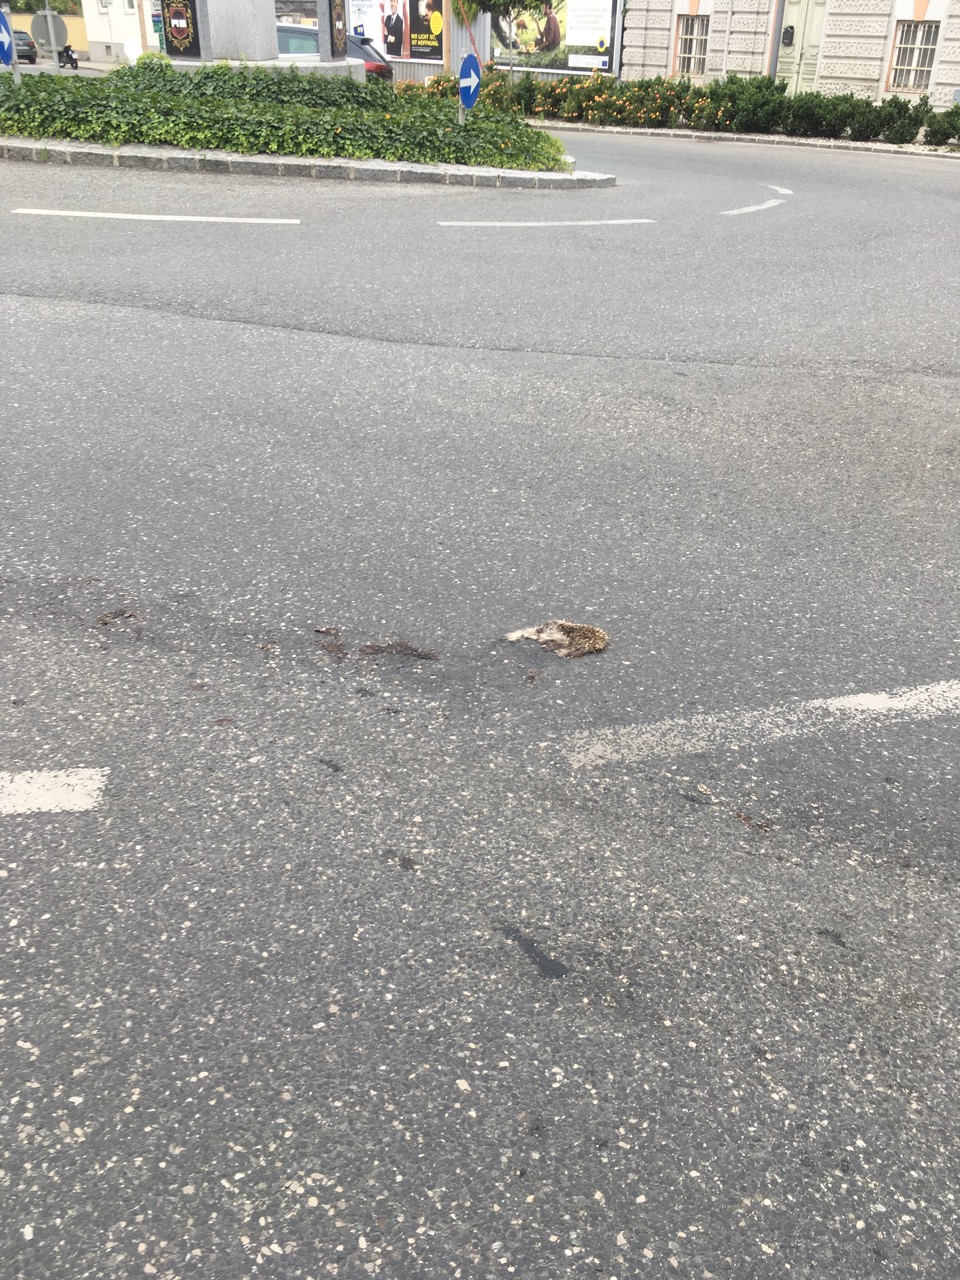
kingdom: Animalia
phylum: Chordata
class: Mammalia
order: Erinaceomorpha
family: Erinaceidae
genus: Erinaceus
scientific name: Erinaceus
